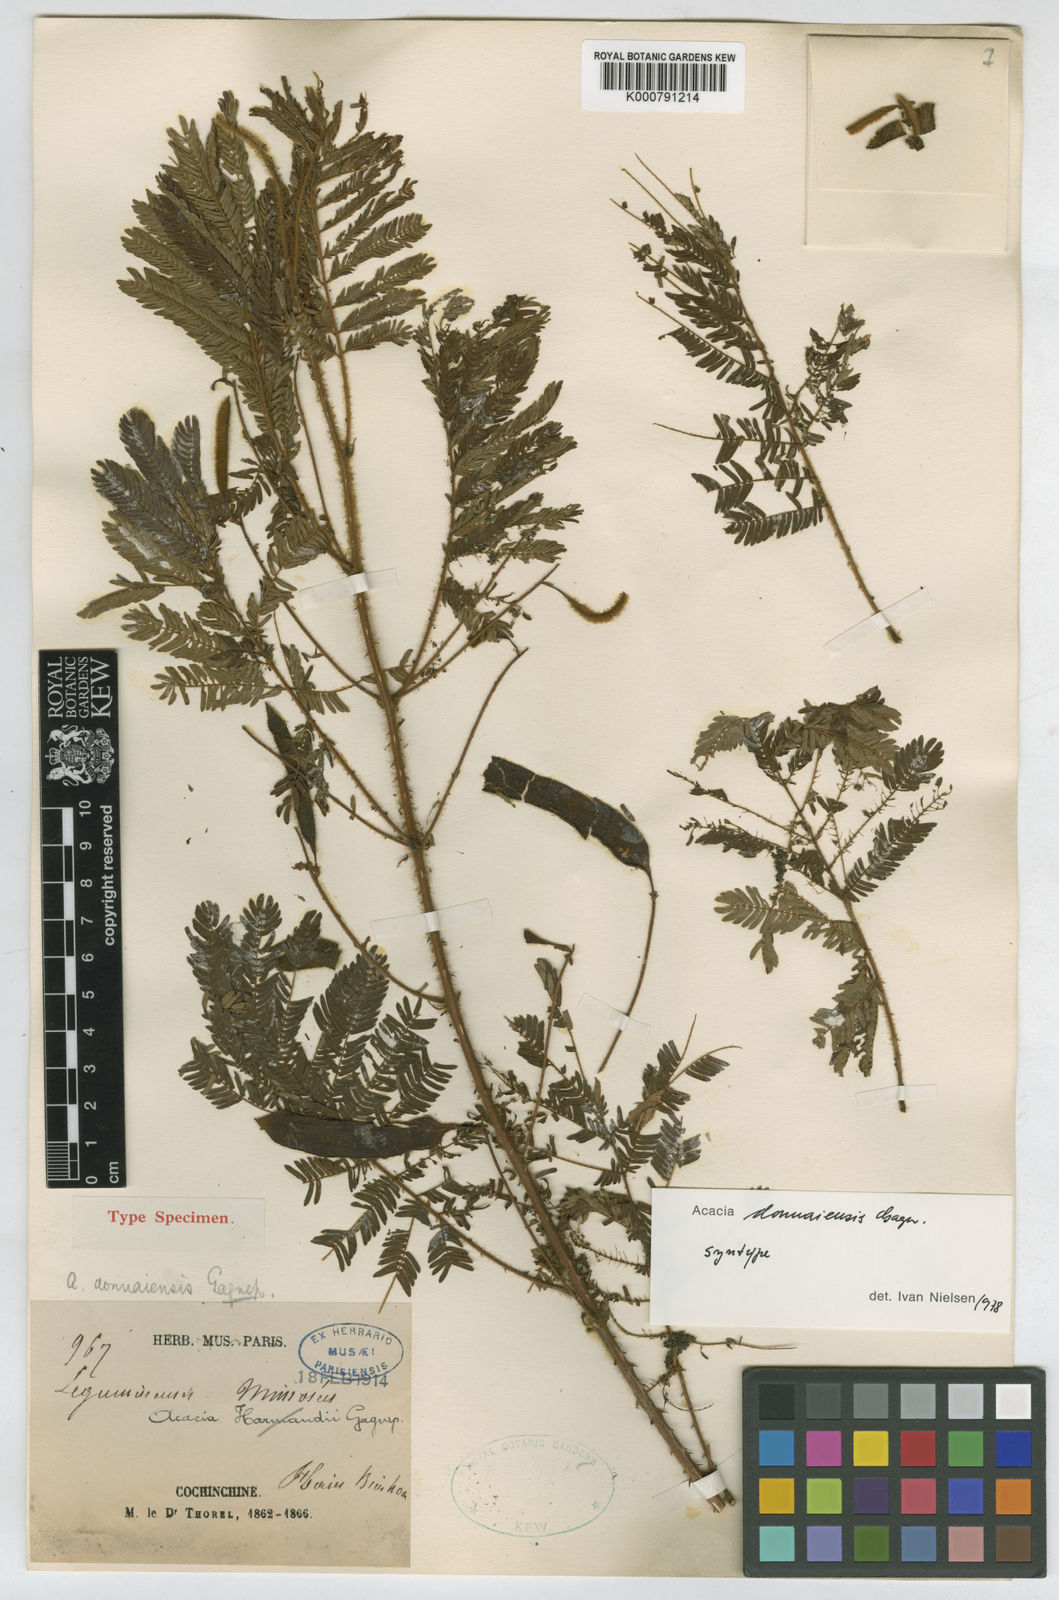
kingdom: Plantae
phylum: Tracheophyta
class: Magnoliopsida
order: Fabales
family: Fabaceae
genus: Senegalia
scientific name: Senegalia donnaiensis
